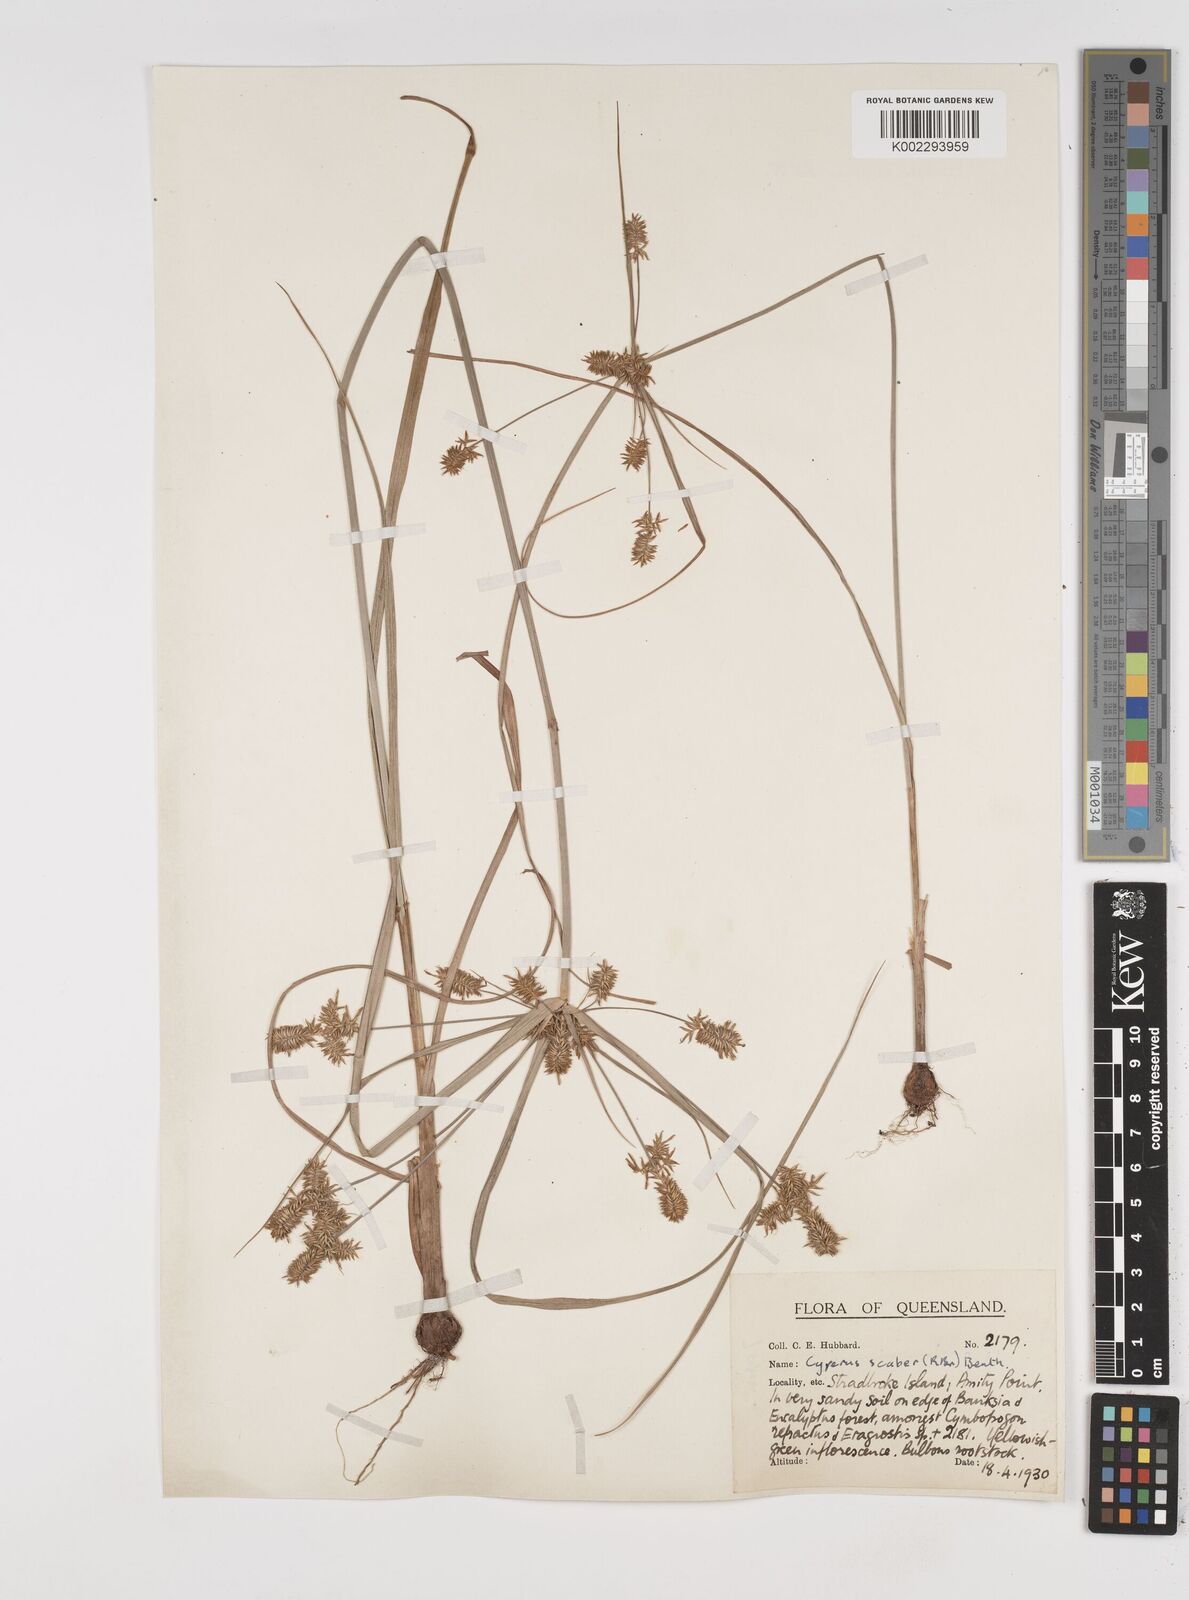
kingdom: Plantae
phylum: Tracheophyta
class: Liliopsida
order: Poales
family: Cyperaceae
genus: Cyperus
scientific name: Cyperus scaber
